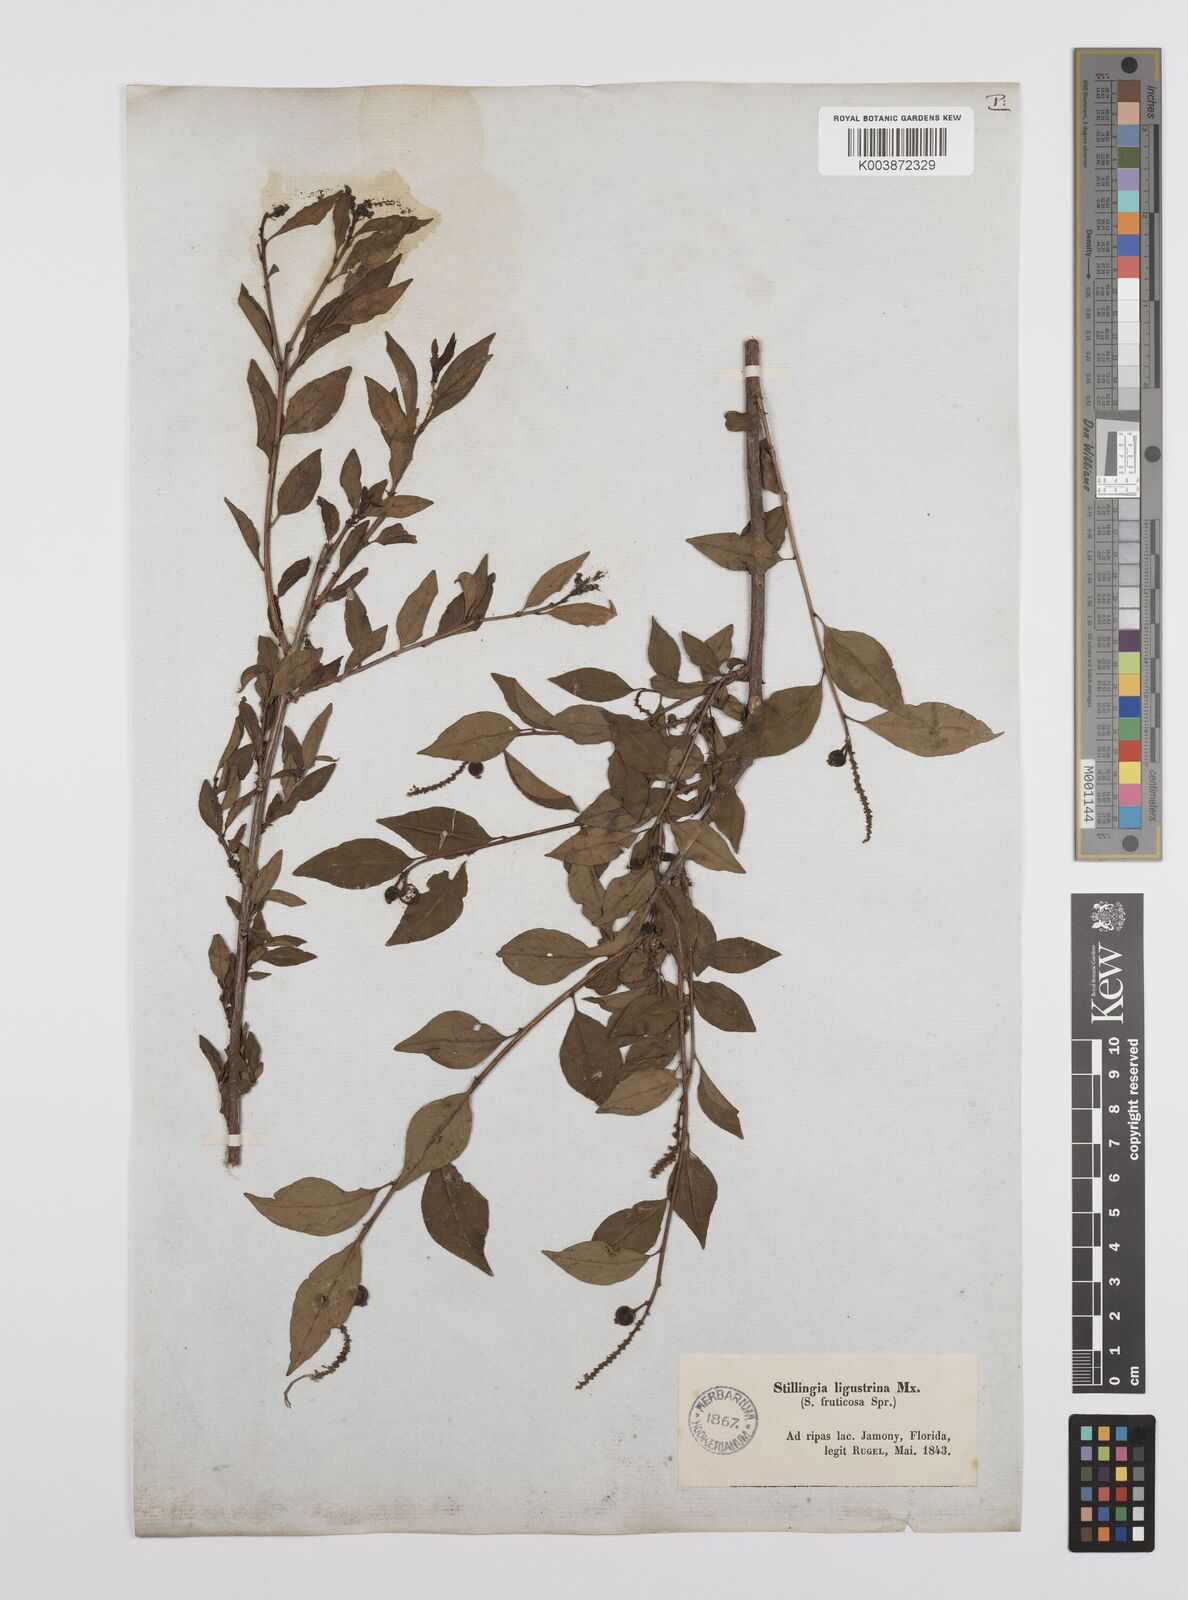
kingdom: Plantae
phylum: Tracheophyta
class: Magnoliopsida
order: Malpighiales
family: Euphorbiaceae
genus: Ditrysinia
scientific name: Ditrysinia fruticosa
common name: Gulf sebastian-bush
